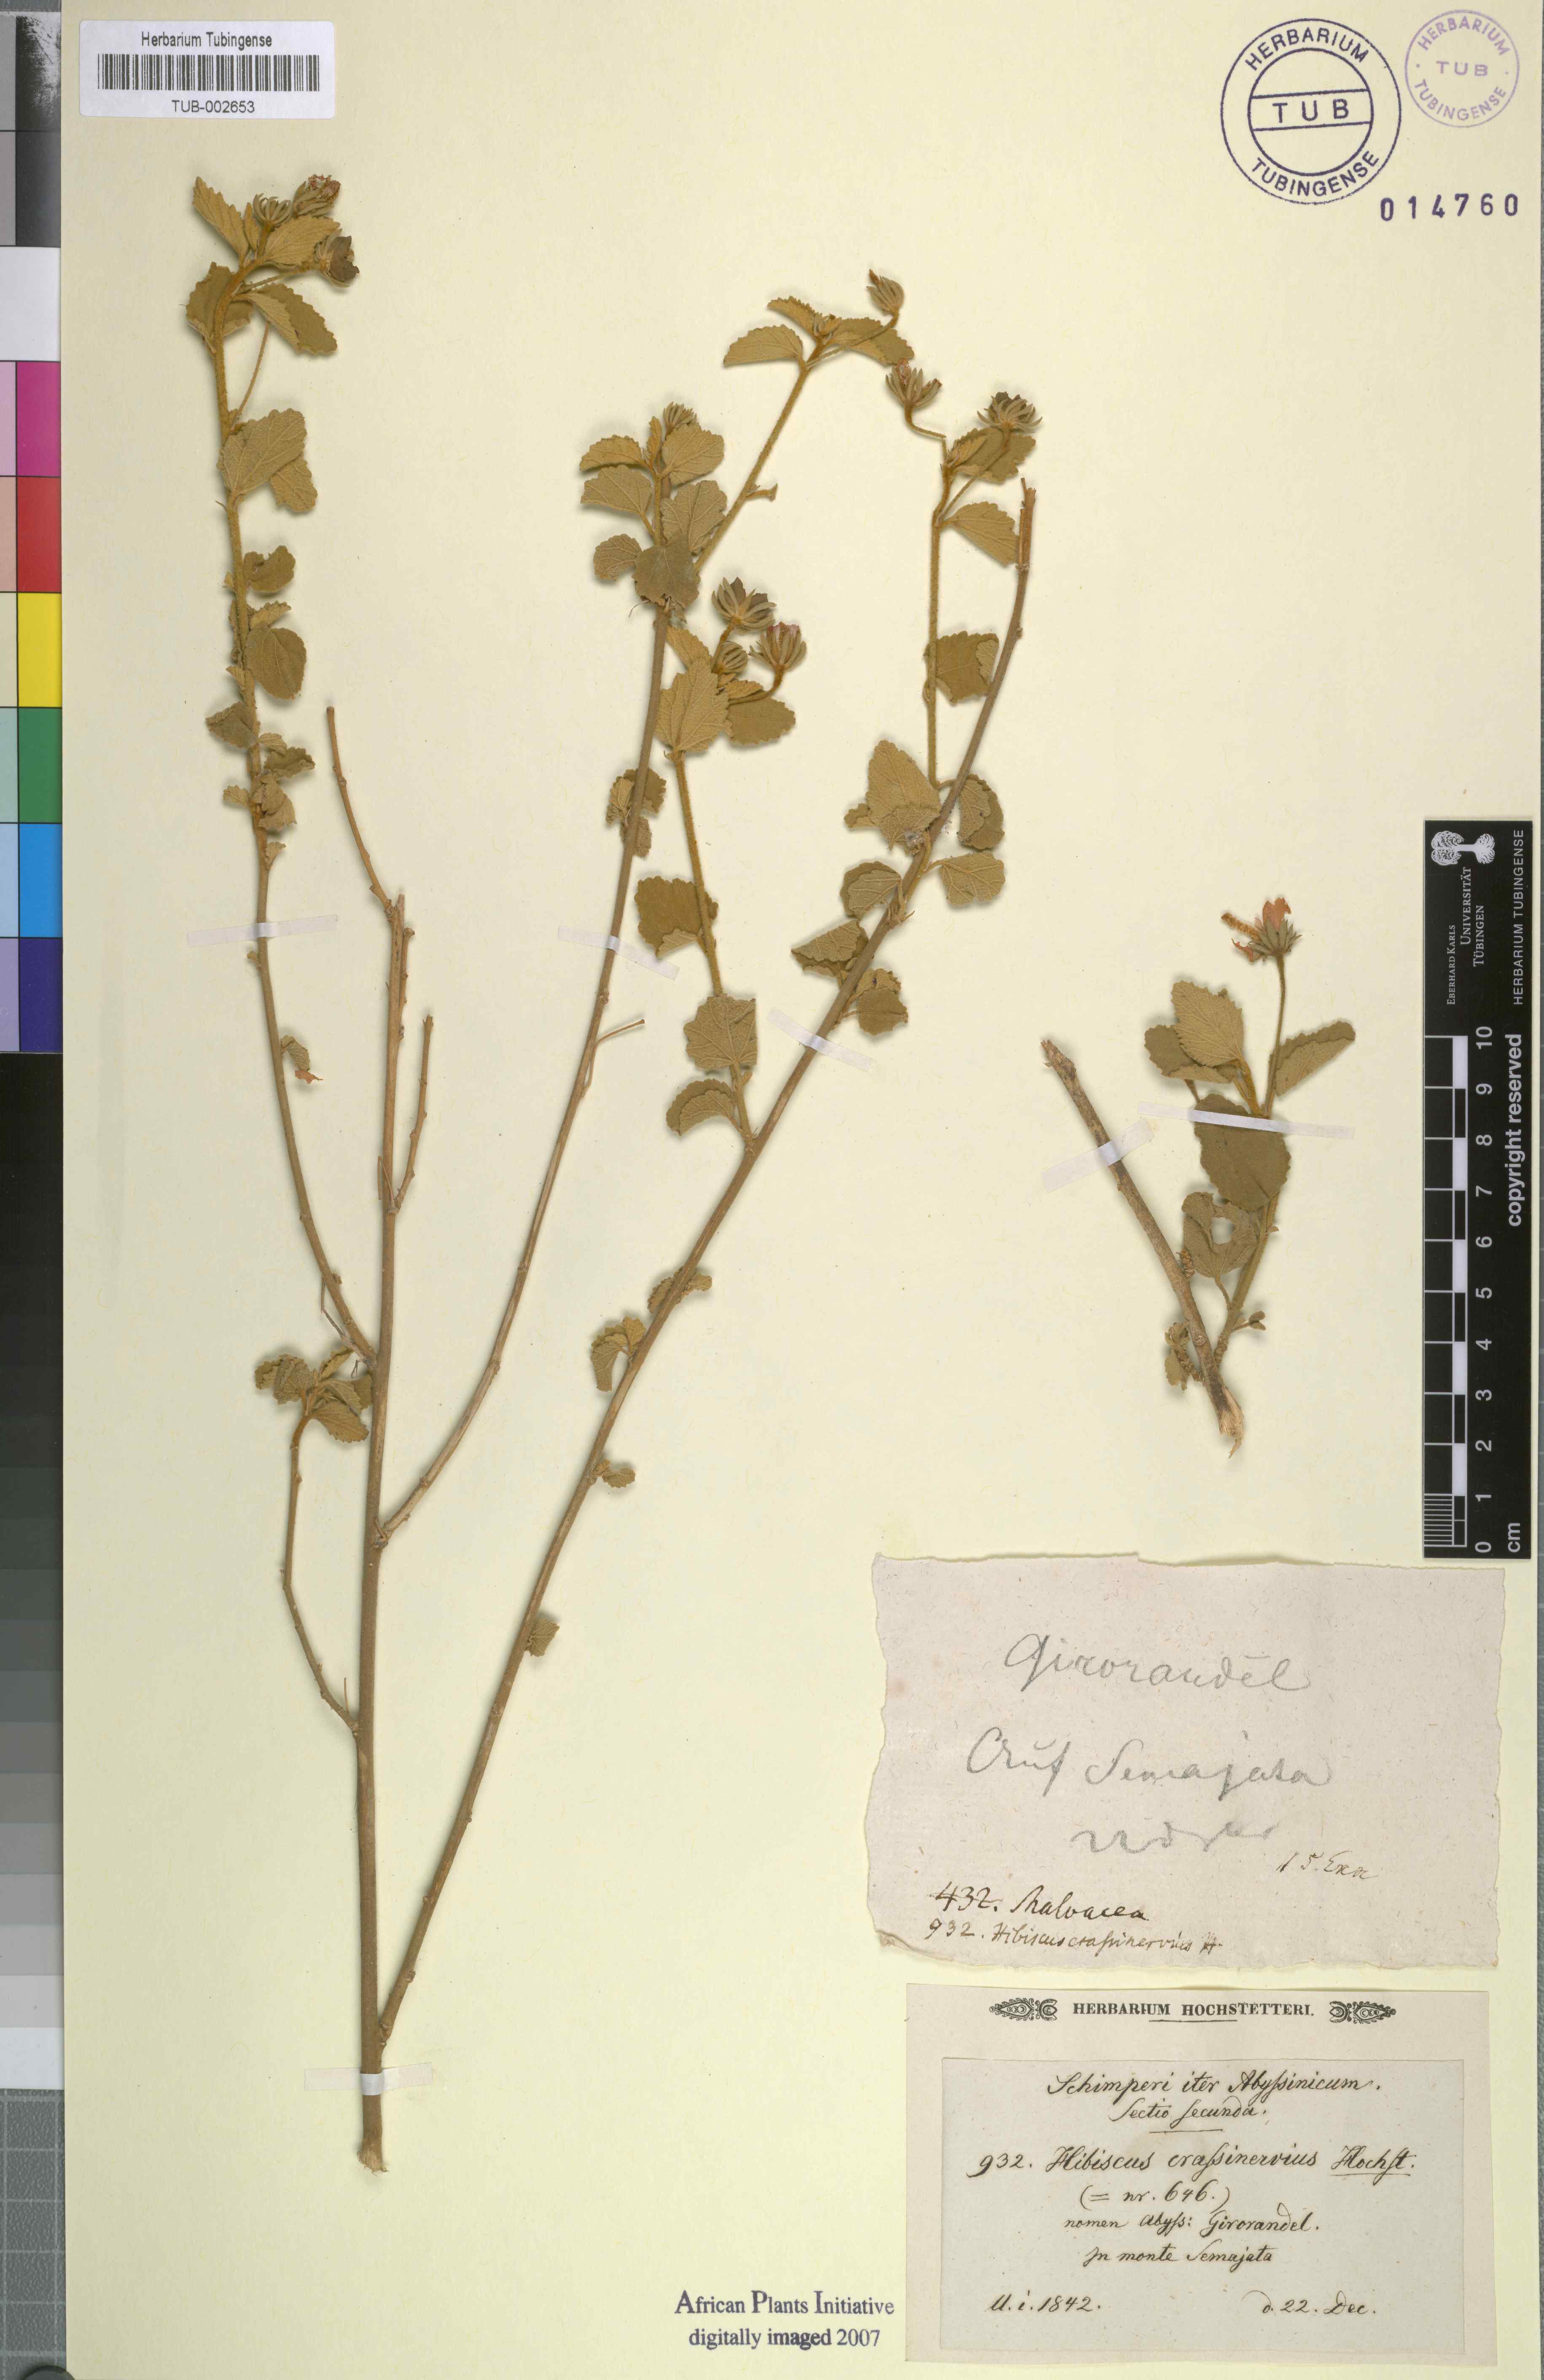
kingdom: Plantae
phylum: Tracheophyta
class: Magnoliopsida
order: Malvales
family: Malvaceae
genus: Hibiscus
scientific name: Hibiscus crassinervius
